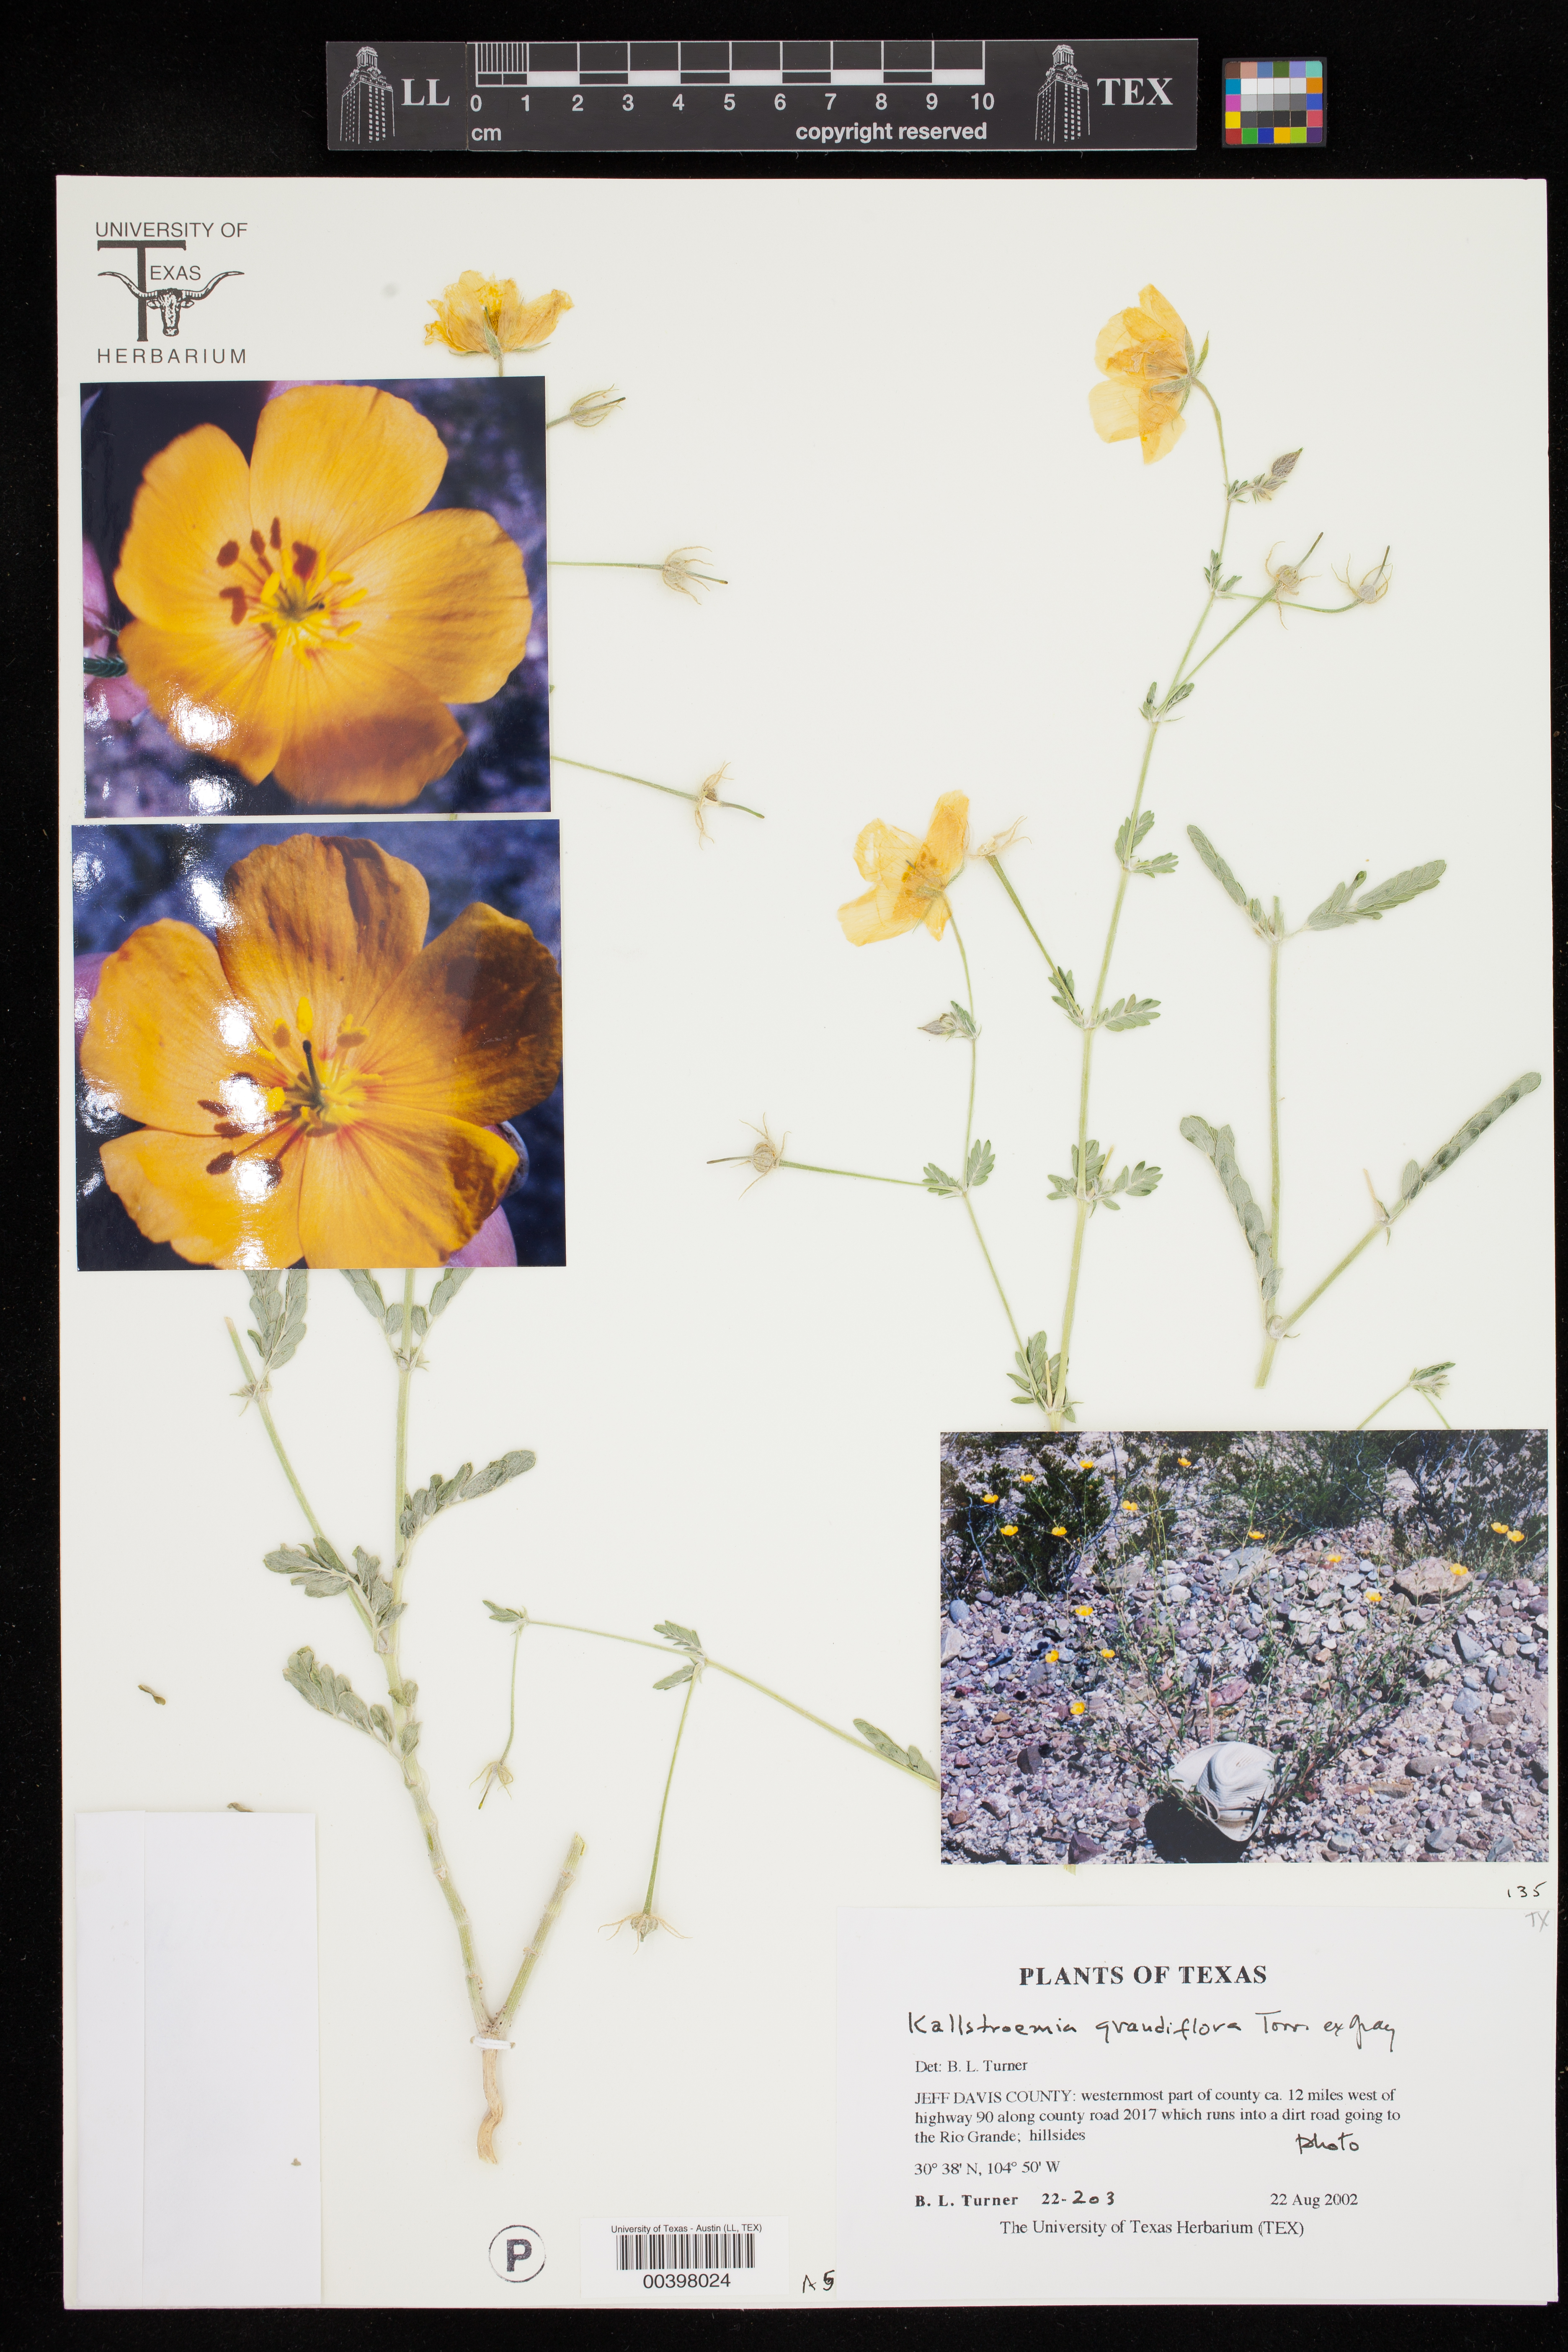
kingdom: Plantae
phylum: Tracheophyta
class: Magnoliopsida
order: Zygophyllales
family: Zygophyllaceae
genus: Kallstroemia
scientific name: Kallstroemia grandiflora
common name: Arizona-poppy
